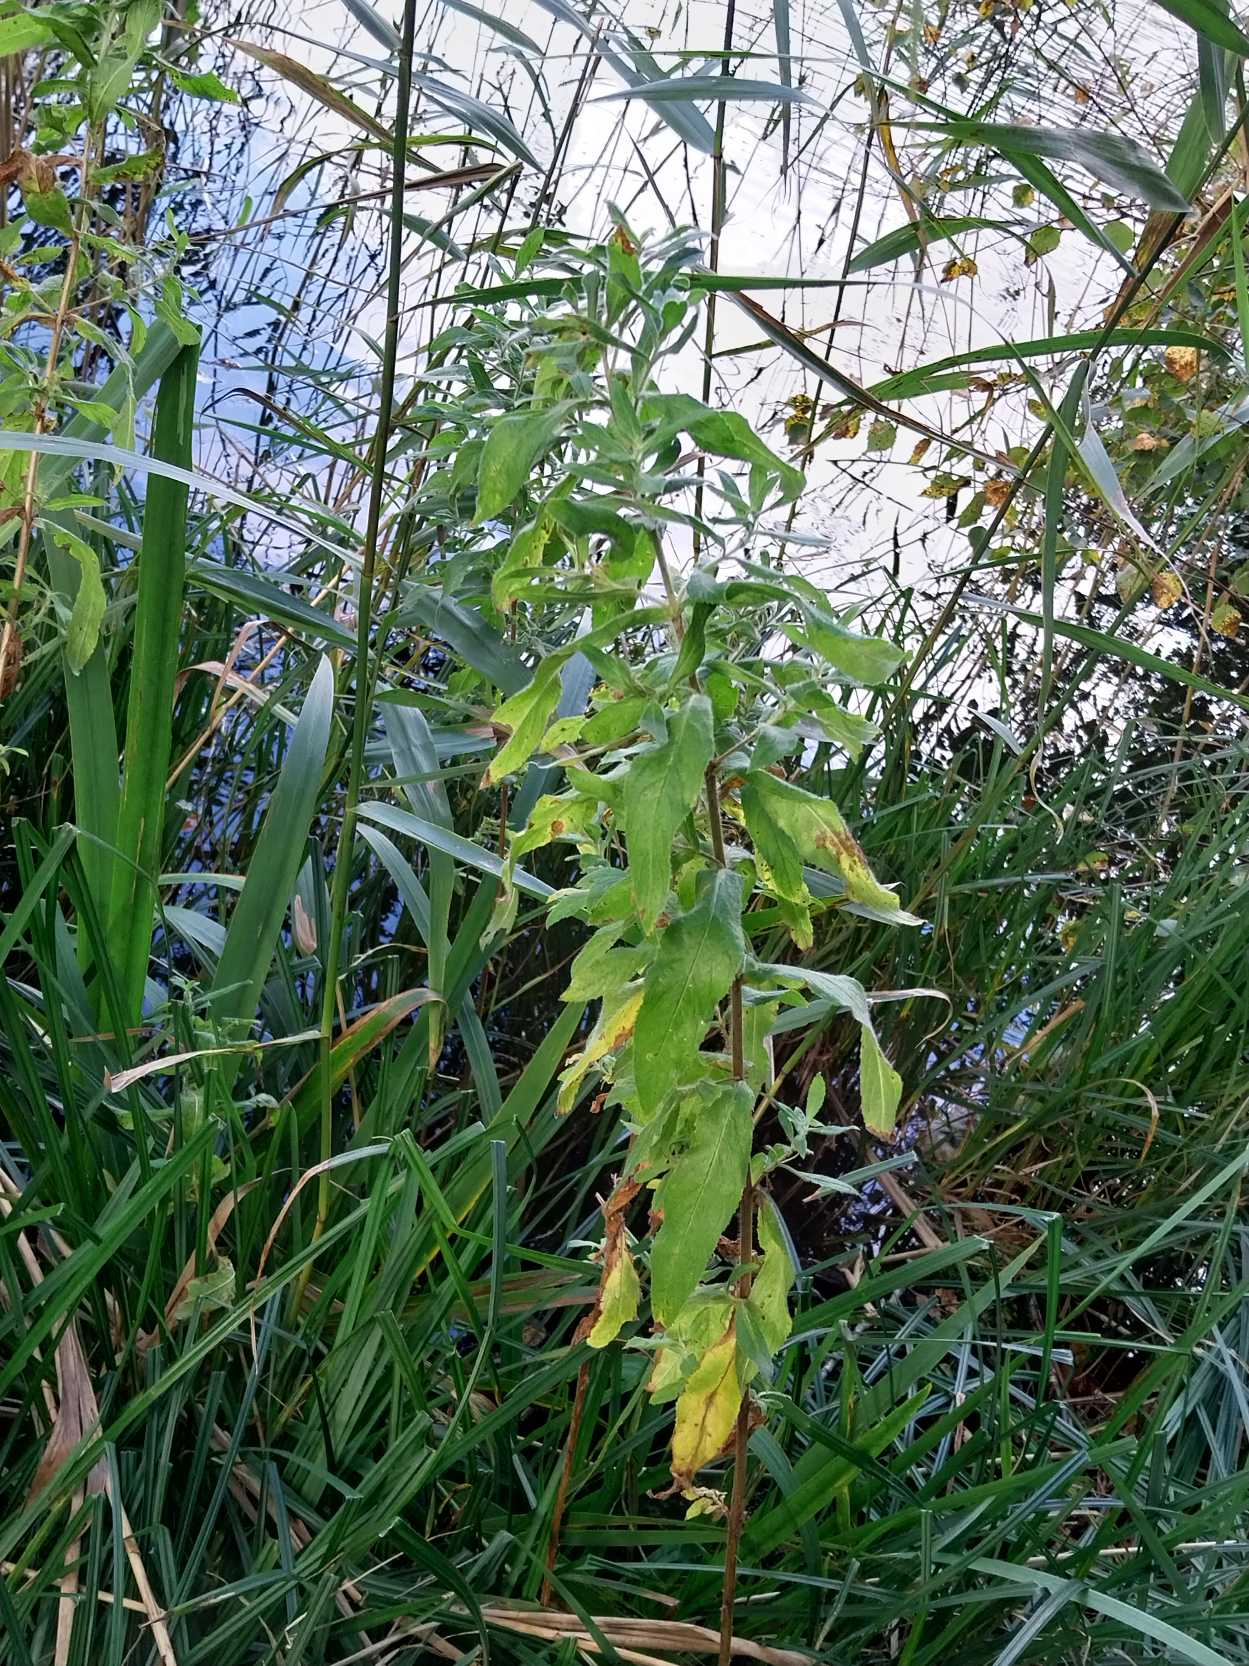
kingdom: Plantae
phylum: Tracheophyta
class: Magnoliopsida
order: Myrtales
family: Onagraceae
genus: Epilobium
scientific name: Epilobium hirsutum
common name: Lådden dueurt
